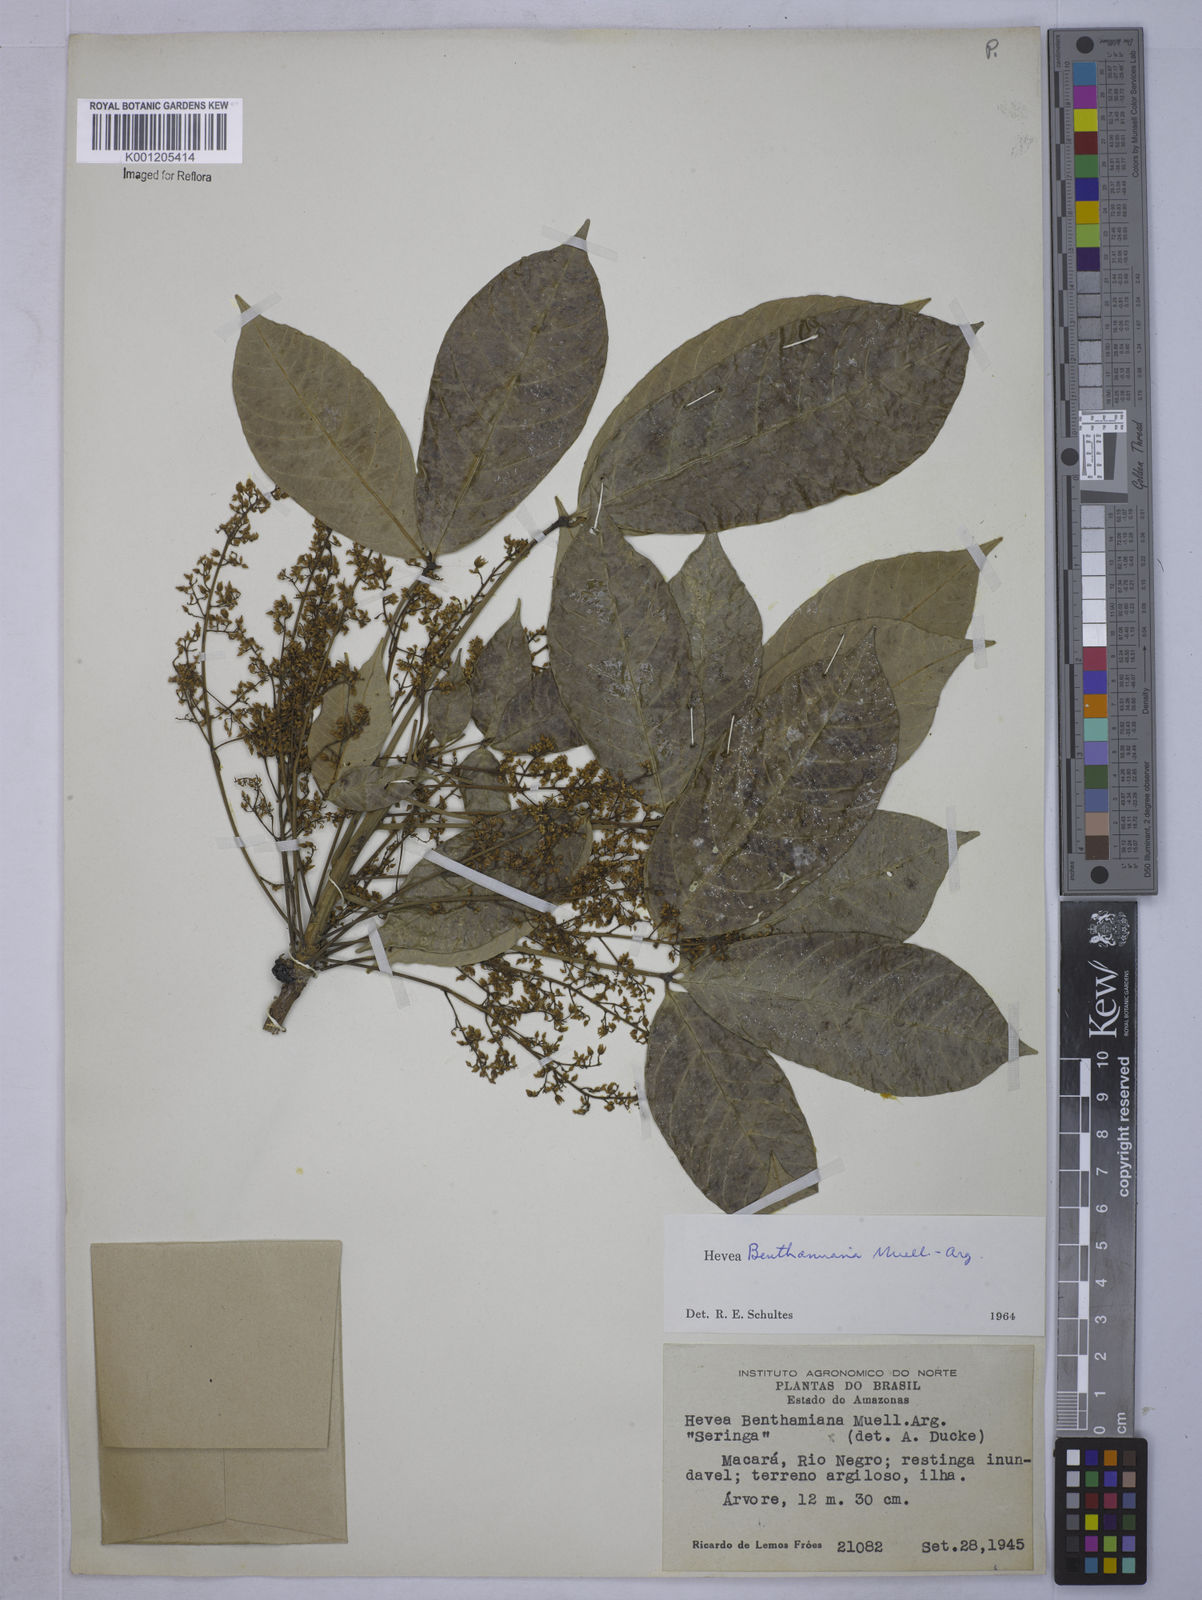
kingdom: Plantae
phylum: Tracheophyta
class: Magnoliopsida
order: Malpighiales
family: Euphorbiaceae
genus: Hevea
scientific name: Hevea
